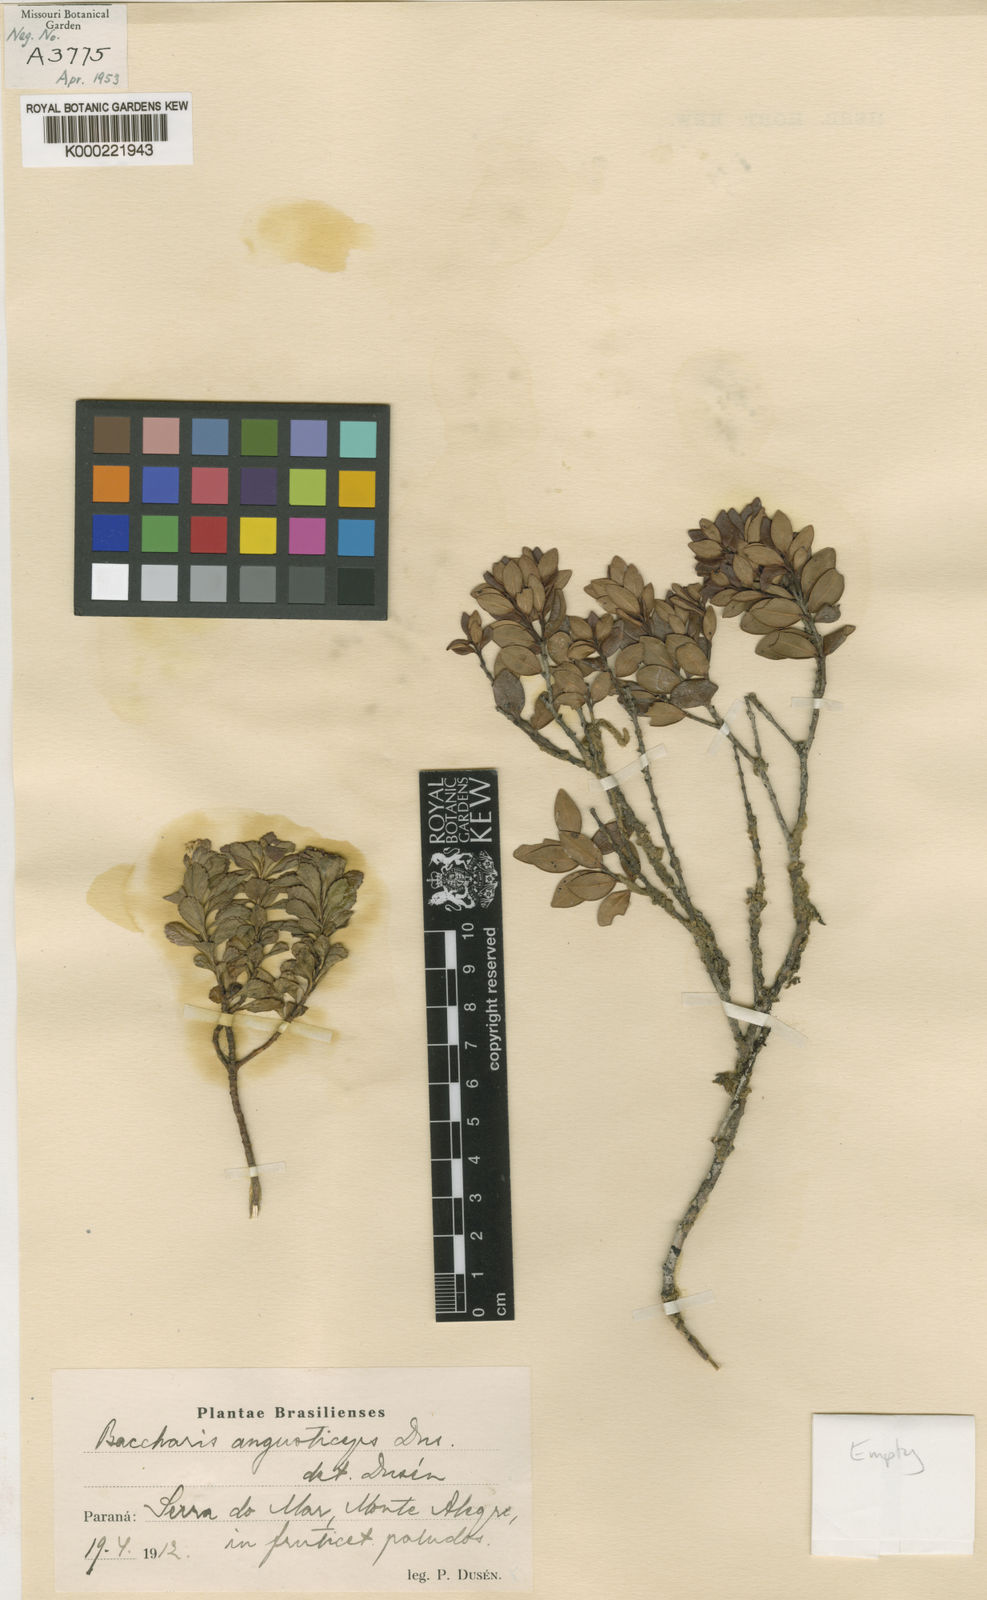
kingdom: Plantae
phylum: Tracheophyta
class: Magnoliopsida
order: Asterales
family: Asteraceae
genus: Baccharis
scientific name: Baccharis
